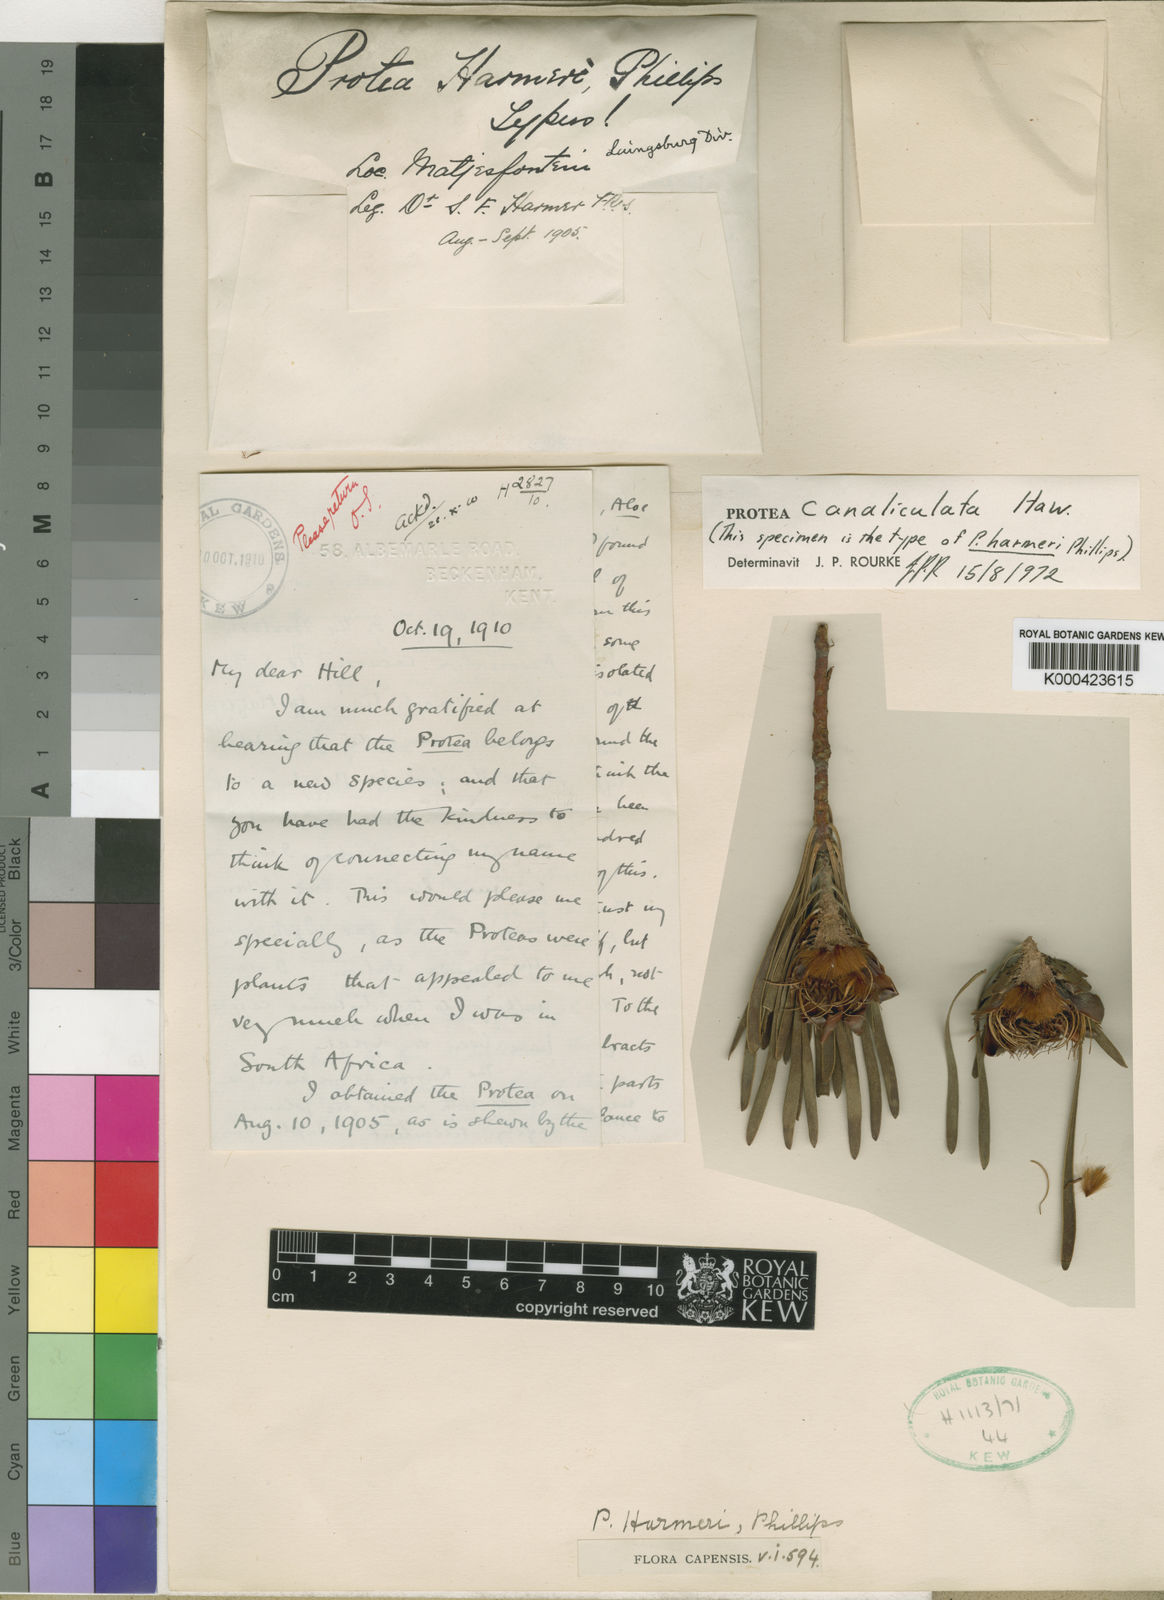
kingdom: Plantae
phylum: Tracheophyta
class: Magnoliopsida
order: Proteales
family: Proteaceae
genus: Protea
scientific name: Protea
